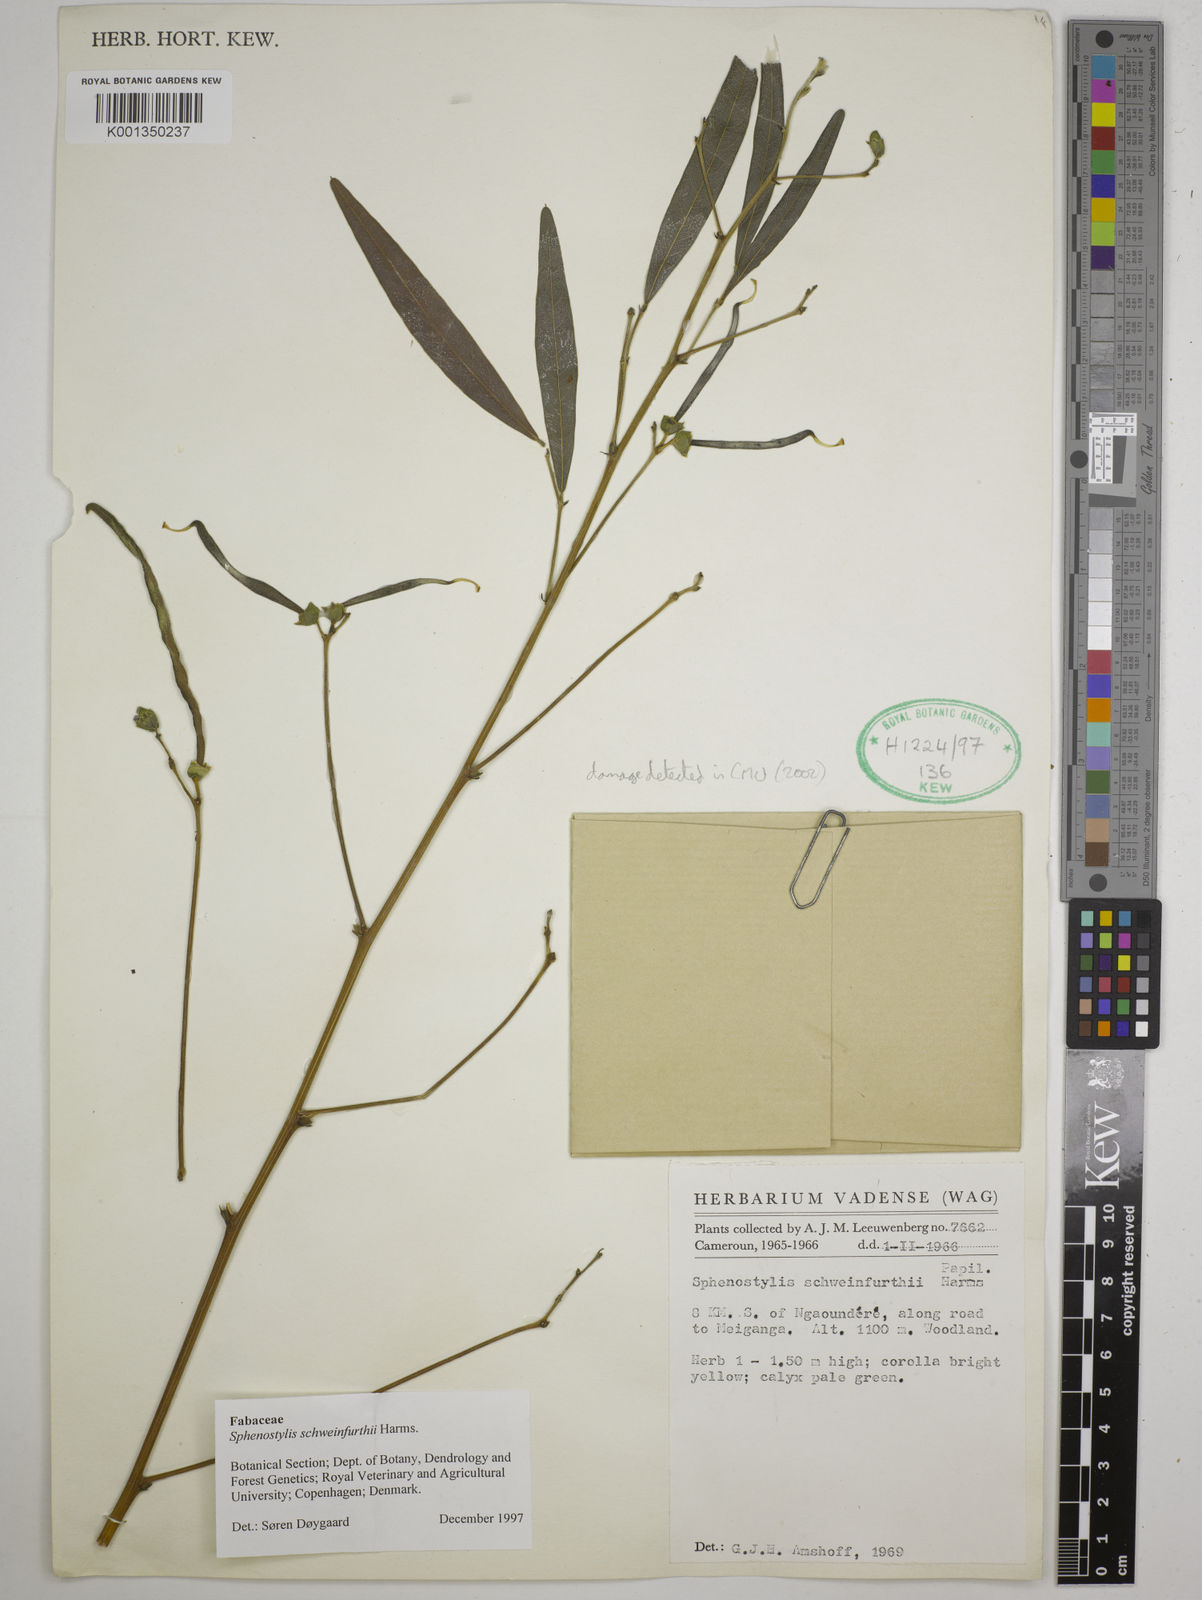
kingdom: Plantae
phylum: Tracheophyta
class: Magnoliopsida
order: Fabales
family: Fabaceae
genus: Sphenostylis
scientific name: Sphenostylis schweinfurthii
